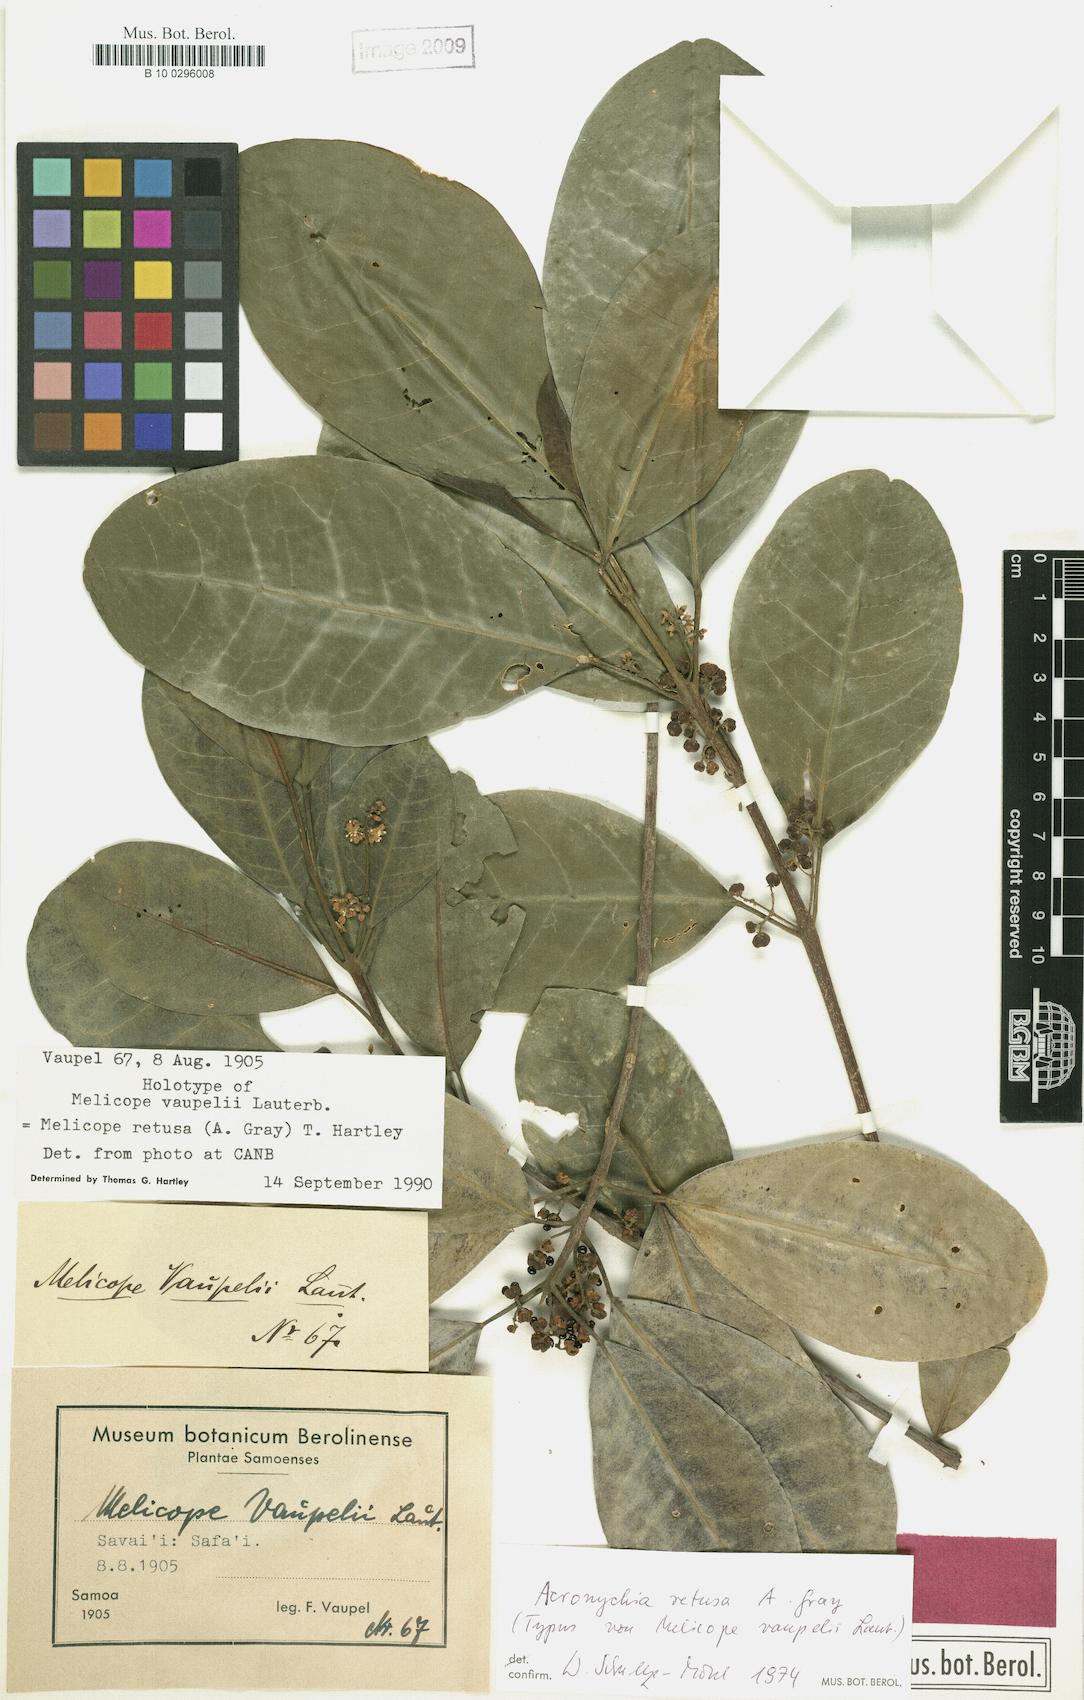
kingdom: Plantae
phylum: Tracheophyta
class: Magnoliopsida
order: Sapindales
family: Rutaceae
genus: Melicope
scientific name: Melicope retusa
